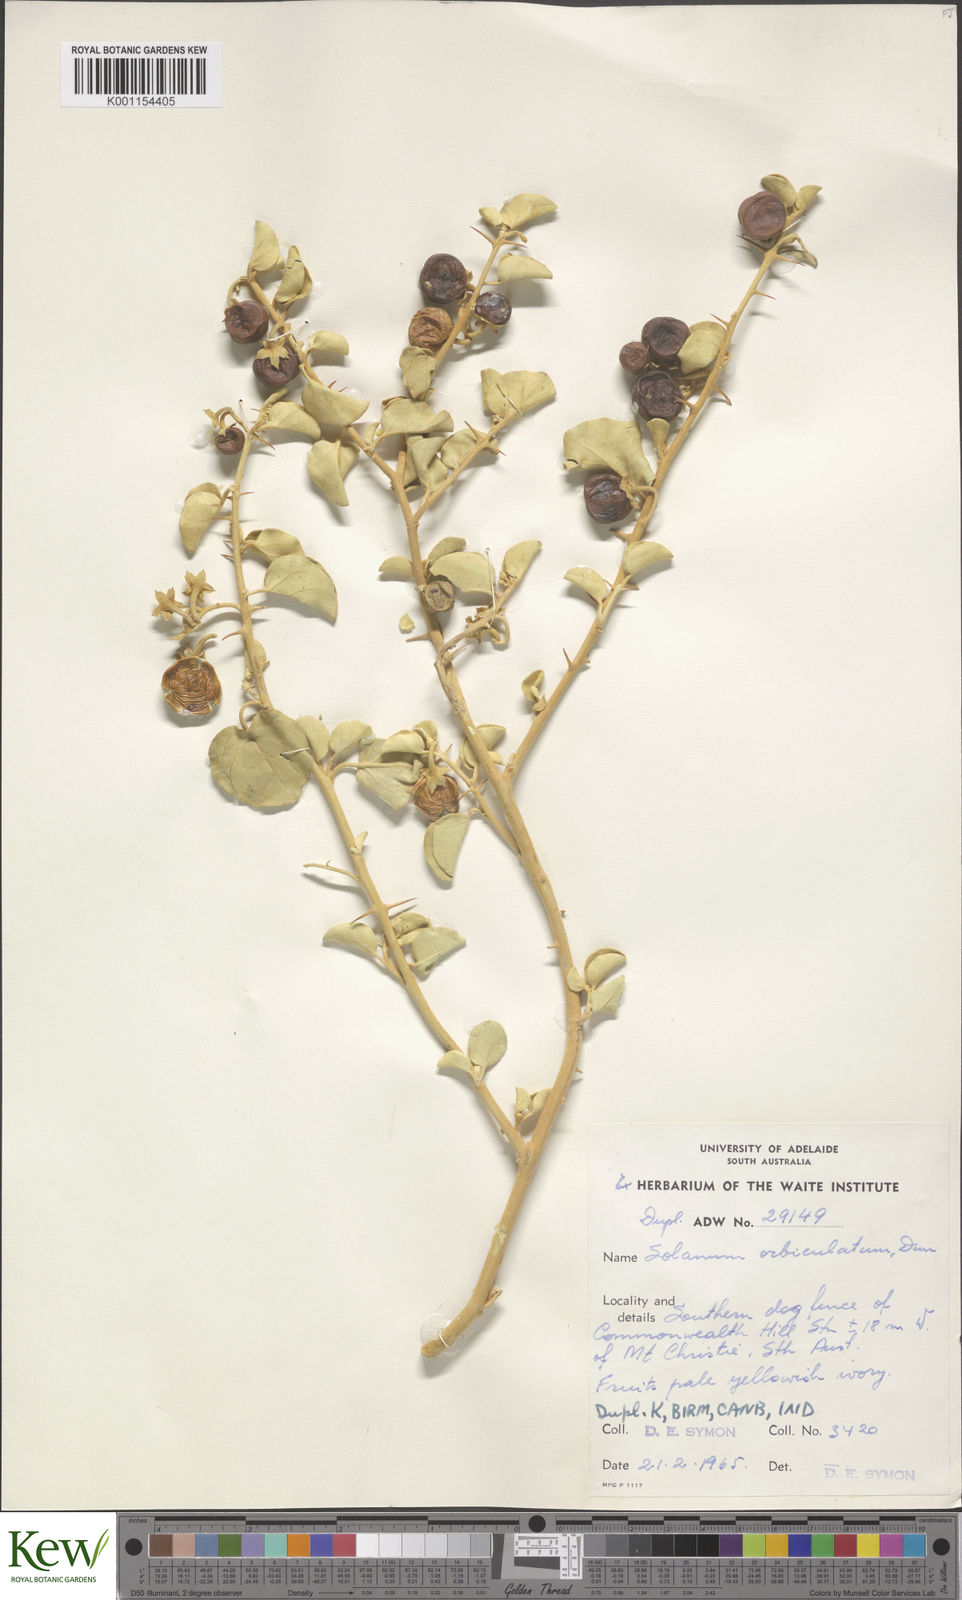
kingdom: Plantae
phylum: Tracheophyta
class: Magnoliopsida
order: Solanales
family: Solanaceae
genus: Solanum
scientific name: Solanum orbiculatum
